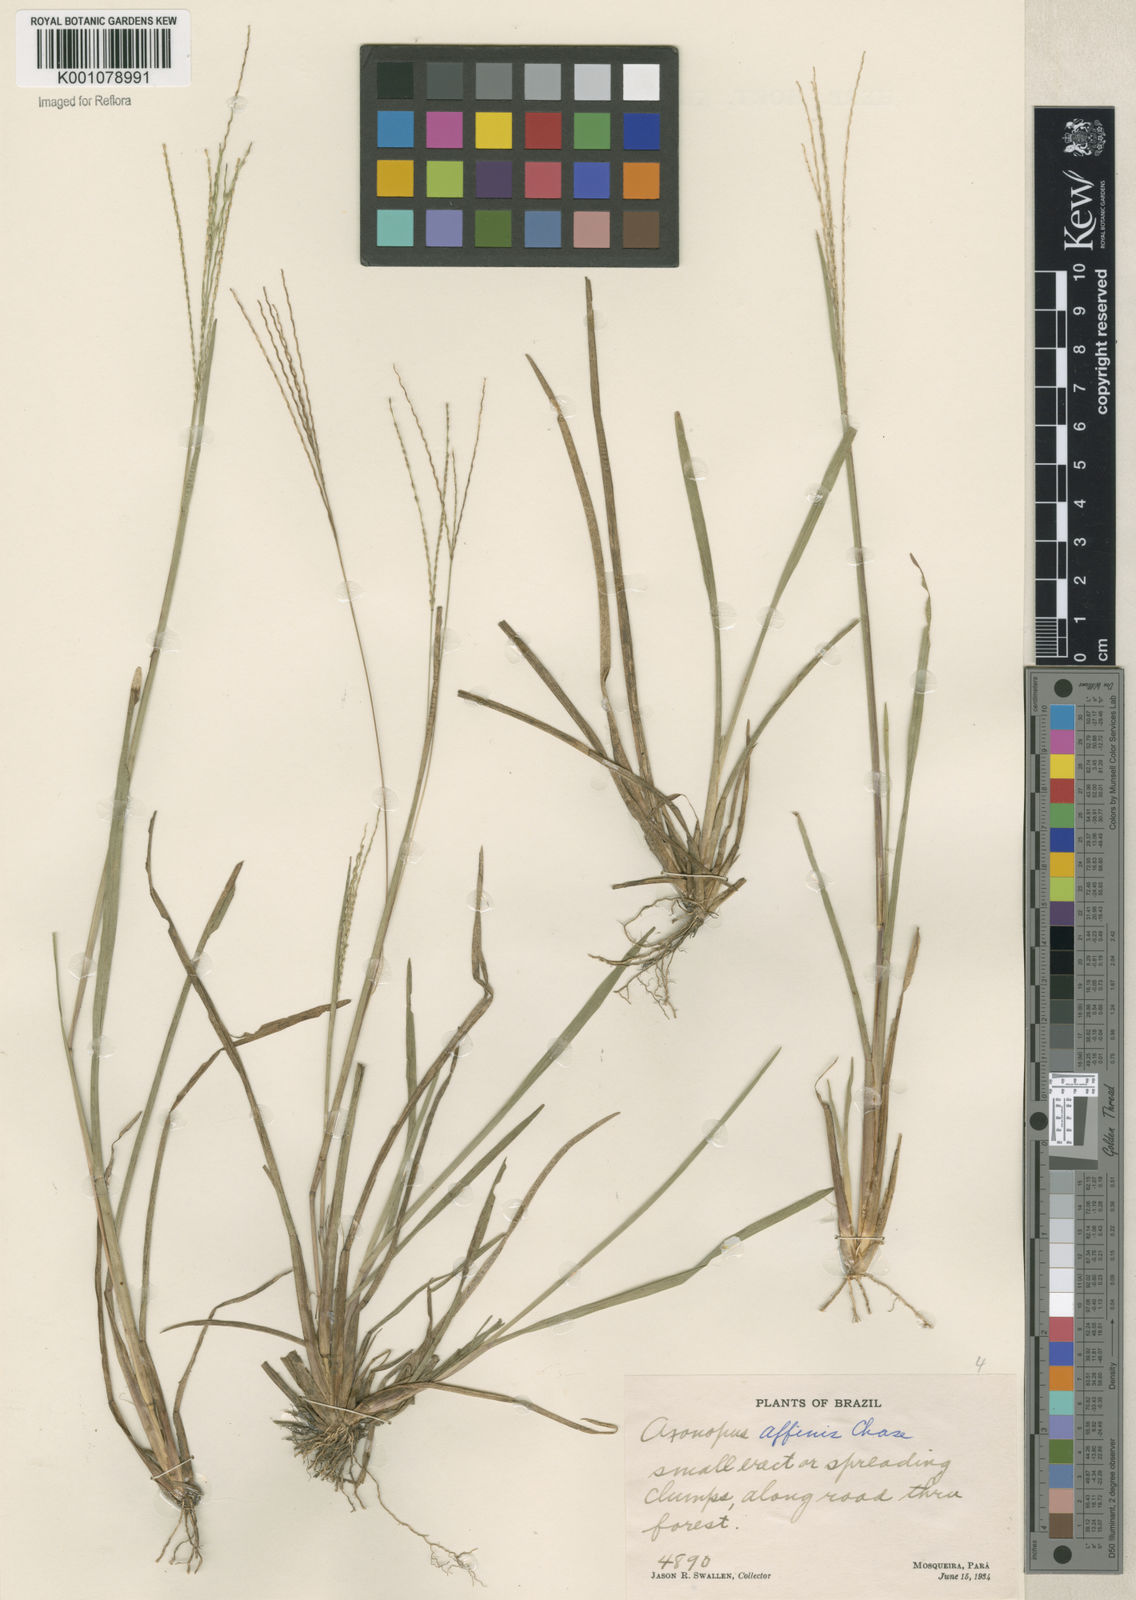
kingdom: Plantae
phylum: Tracheophyta
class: Liliopsida
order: Poales
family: Poaceae
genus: Axonopus
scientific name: Axonopus fissifolius
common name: Common carpetgrass
